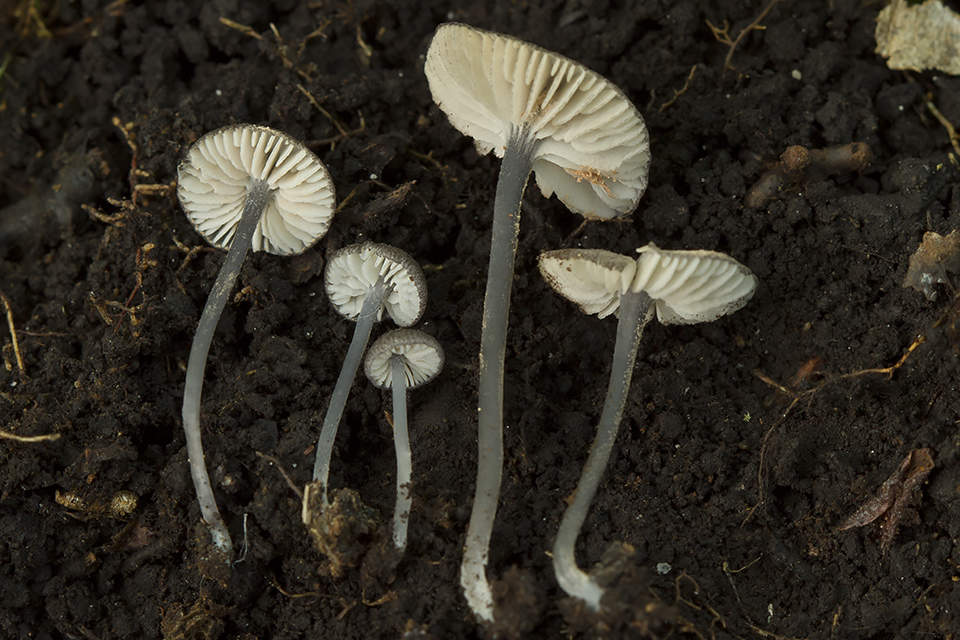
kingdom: Fungi
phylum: Basidiomycota
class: Agaricomycetes
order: Agaricales
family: Entolomataceae
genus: Entoloma
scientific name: Entoloma callipygmaeum
